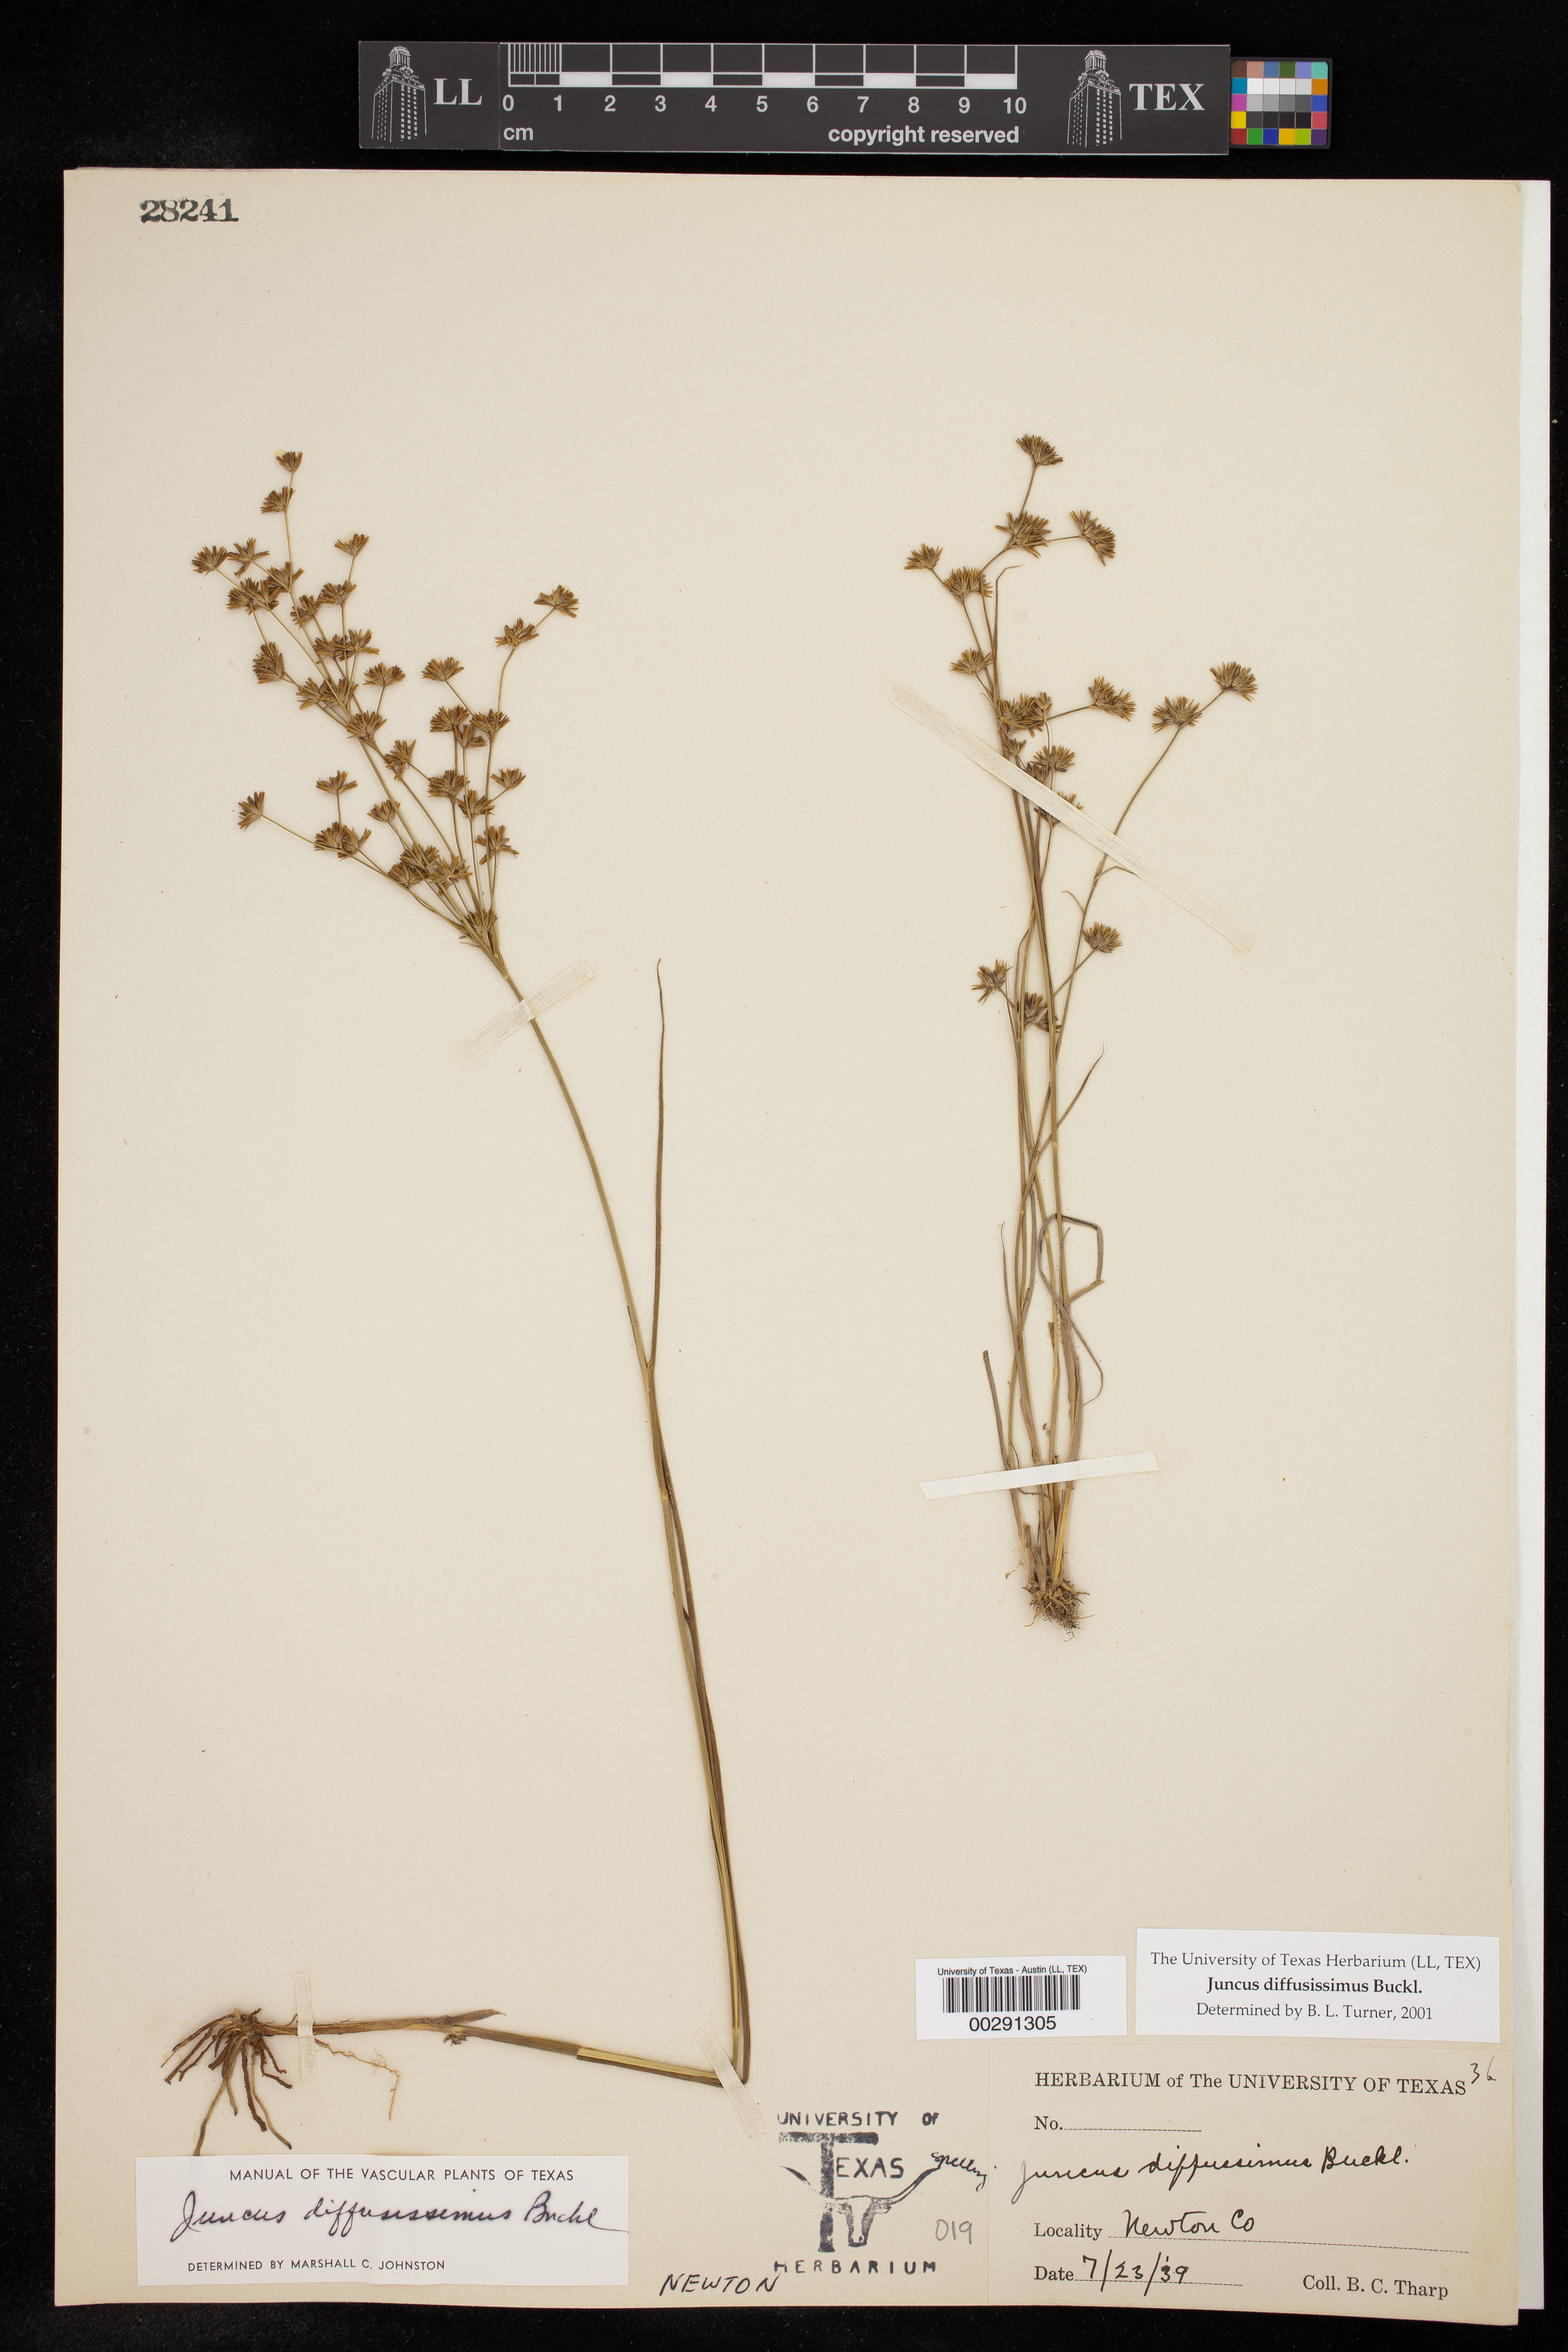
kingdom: Plantae
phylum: Tracheophyta
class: Liliopsida
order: Poales
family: Juncaceae
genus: Juncus
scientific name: Juncus diffusissimus
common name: Slimpod rush
